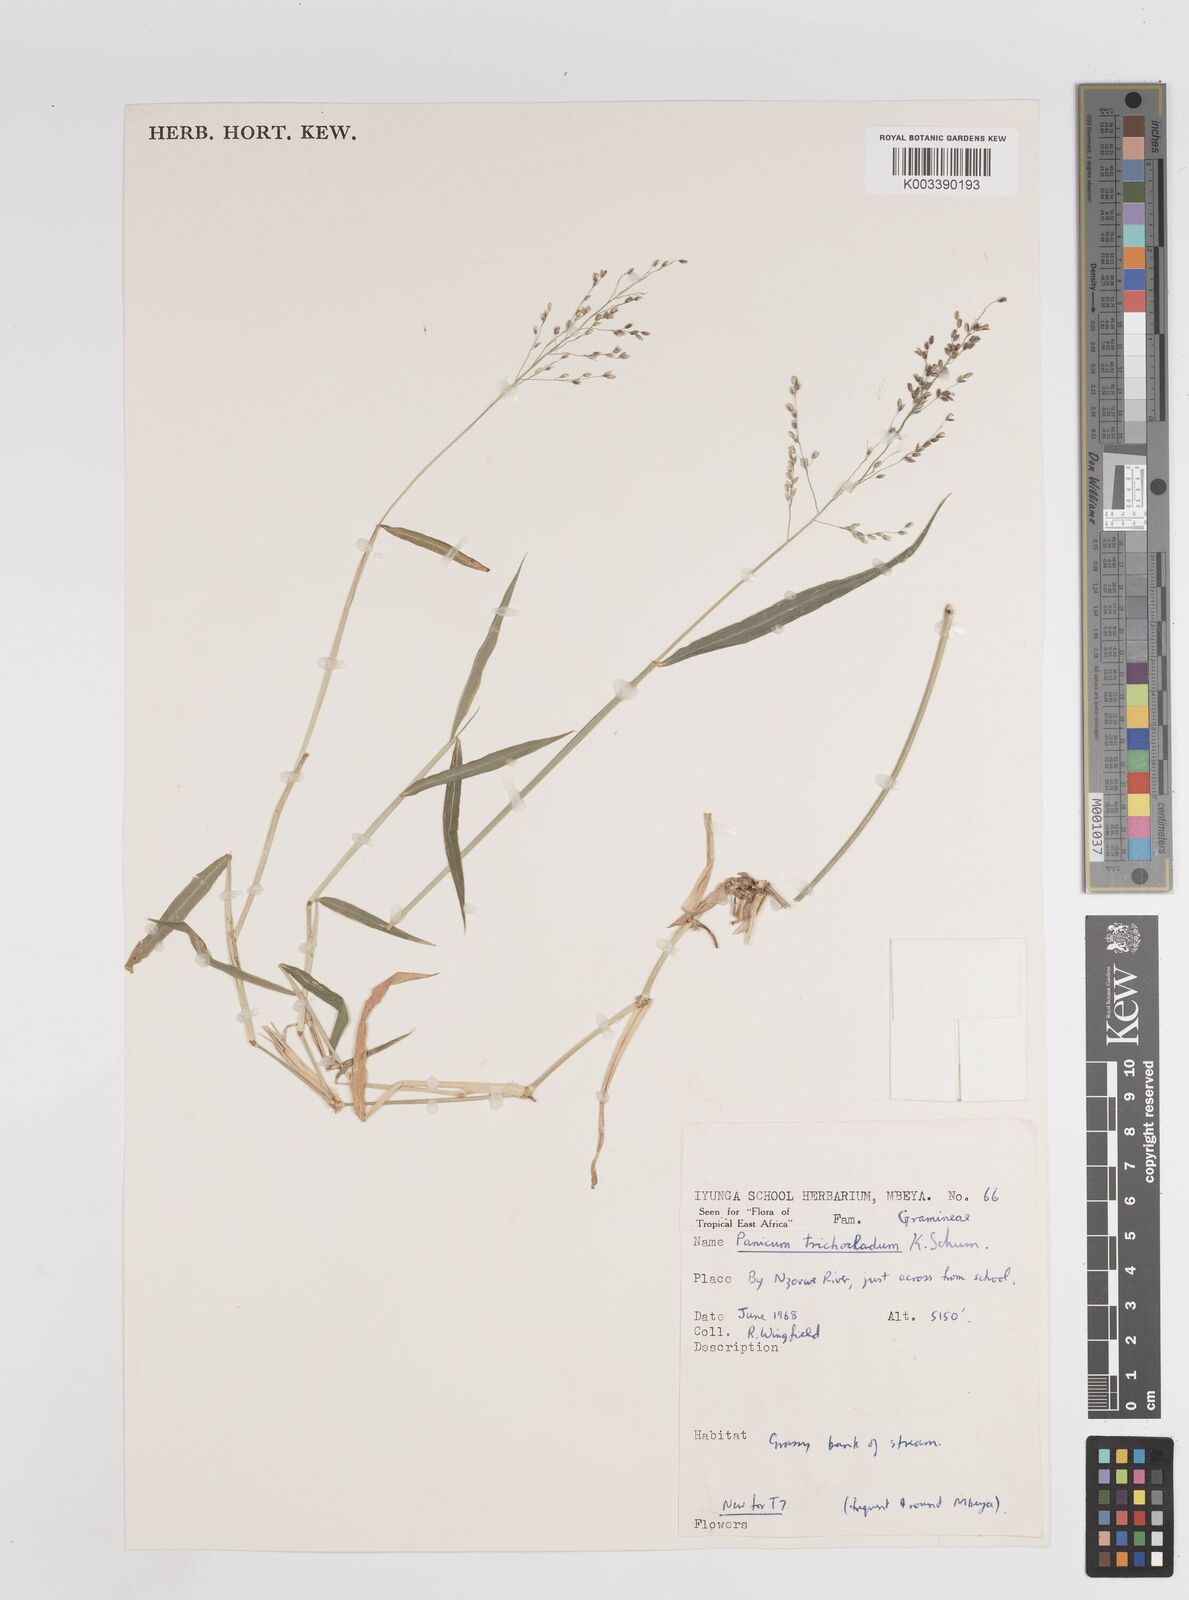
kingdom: Plantae
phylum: Tracheophyta
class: Liliopsida
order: Poales
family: Poaceae
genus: Panicum
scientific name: Panicum trichocladum
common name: Donkey grass
